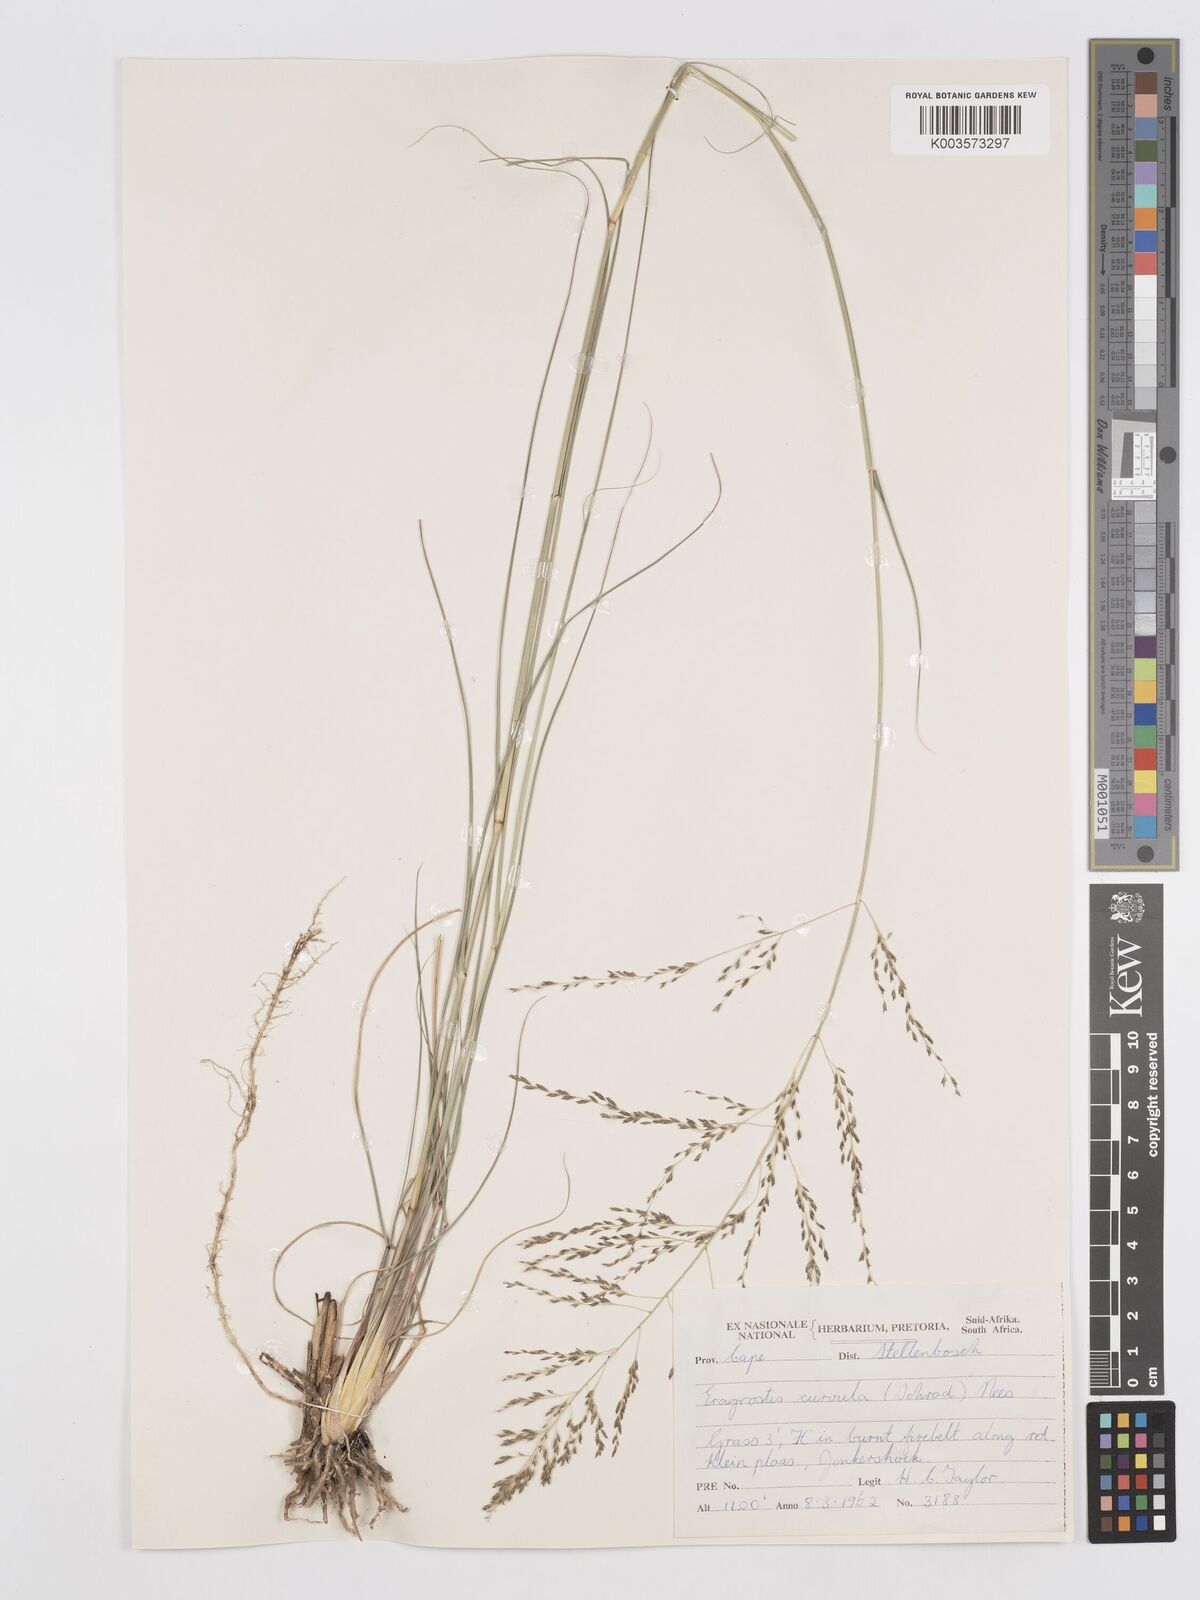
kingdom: Plantae
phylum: Tracheophyta
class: Liliopsida
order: Poales
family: Poaceae
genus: Eragrostis
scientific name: Eragrostis curvula
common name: African love-grass
